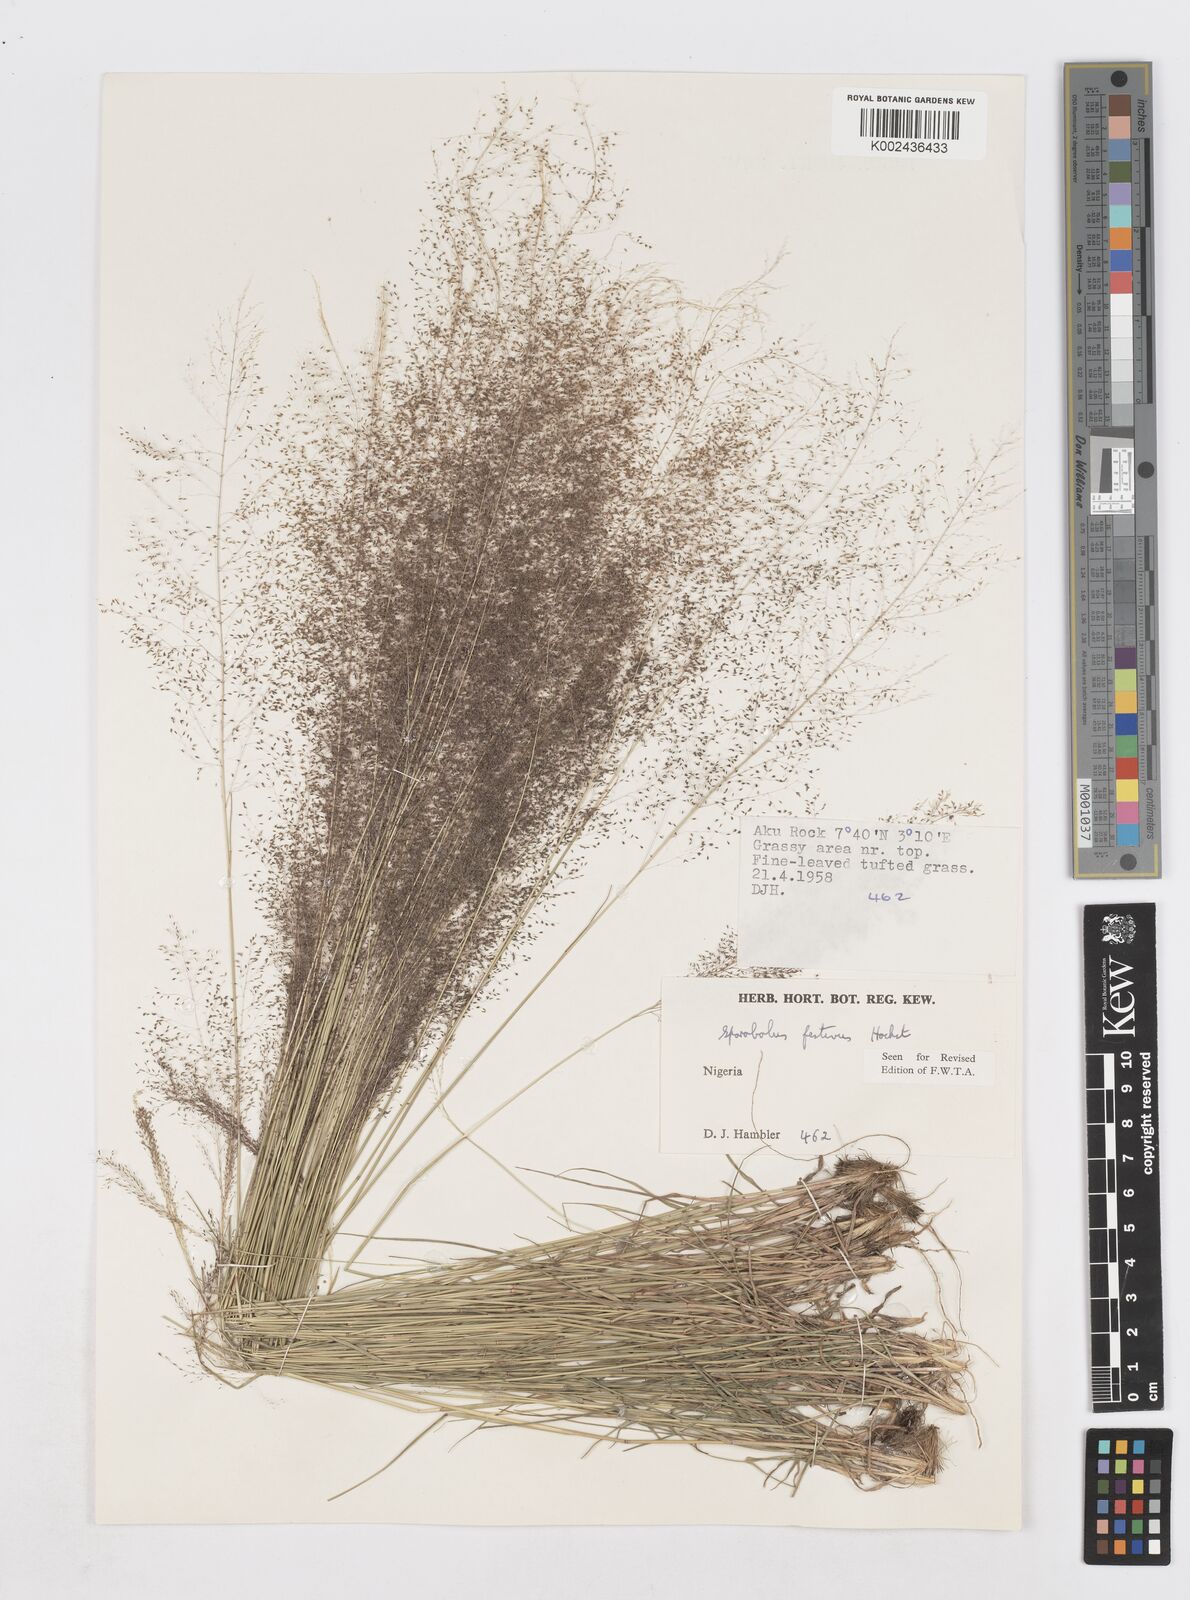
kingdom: Plantae
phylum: Tracheophyta
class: Liliopsida
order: Poales
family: Poaceae
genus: Sporobolus
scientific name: Sporobolus festivus
